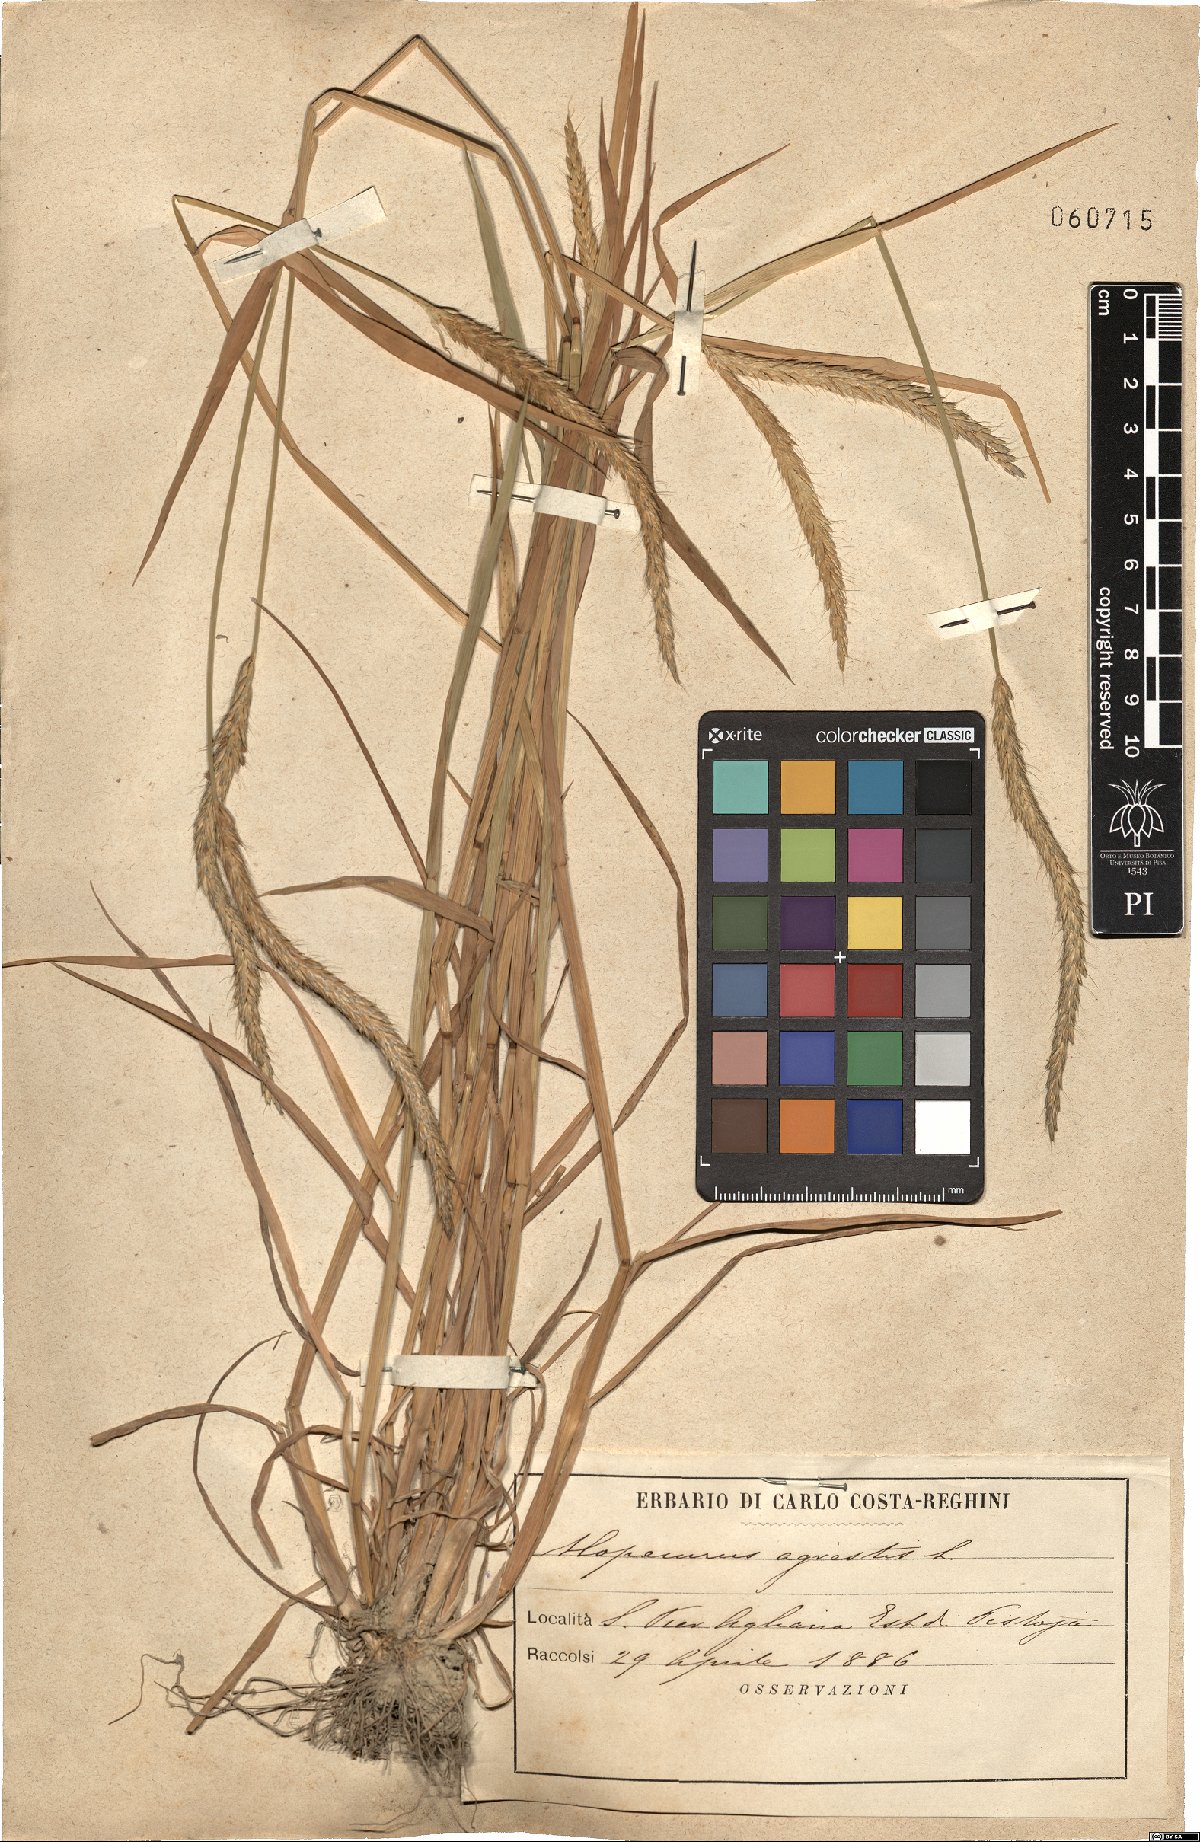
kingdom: Plantae
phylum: Tracheophyta
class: Liliopsida
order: Poales
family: Poaceae
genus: Alopecurus
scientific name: Alopecurus myosuroides
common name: Black-grass
